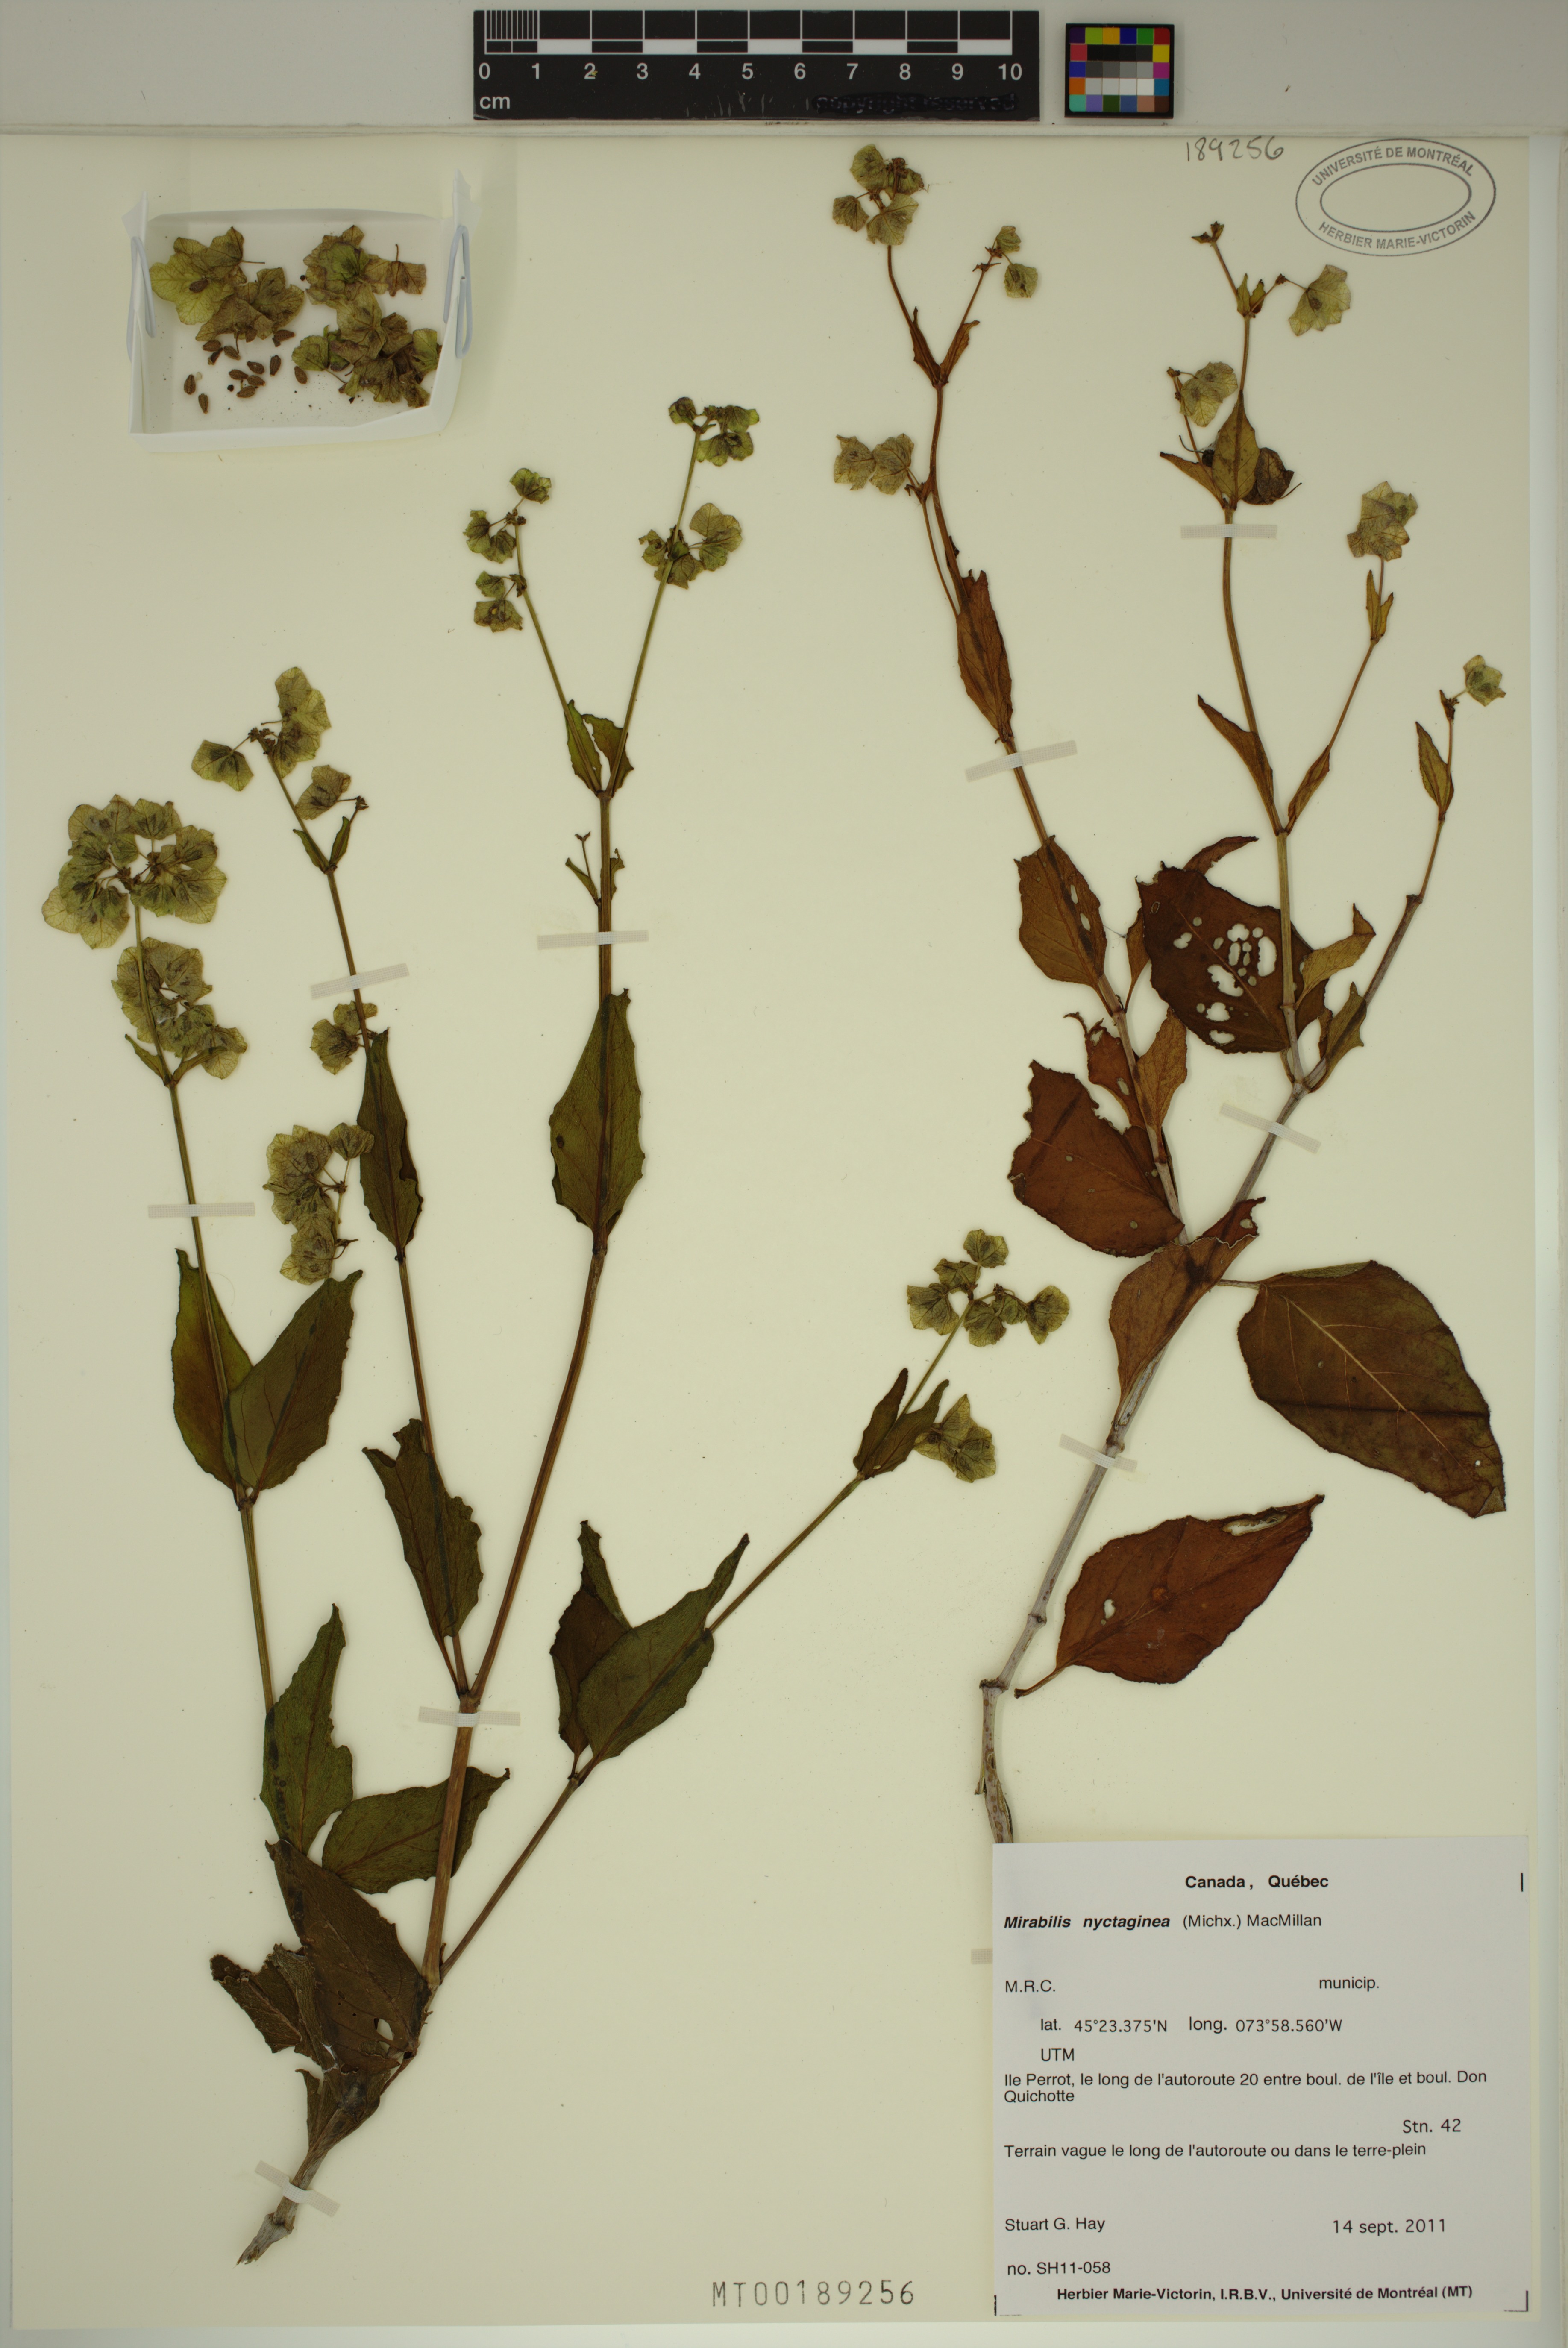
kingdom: Plantae
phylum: Tracheophyta
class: Magnoliopsida
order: Caryophyllales
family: Nyctaginaceae
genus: Mirabilis
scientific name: Mirabilis nyctaginea
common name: Umbrella wort
